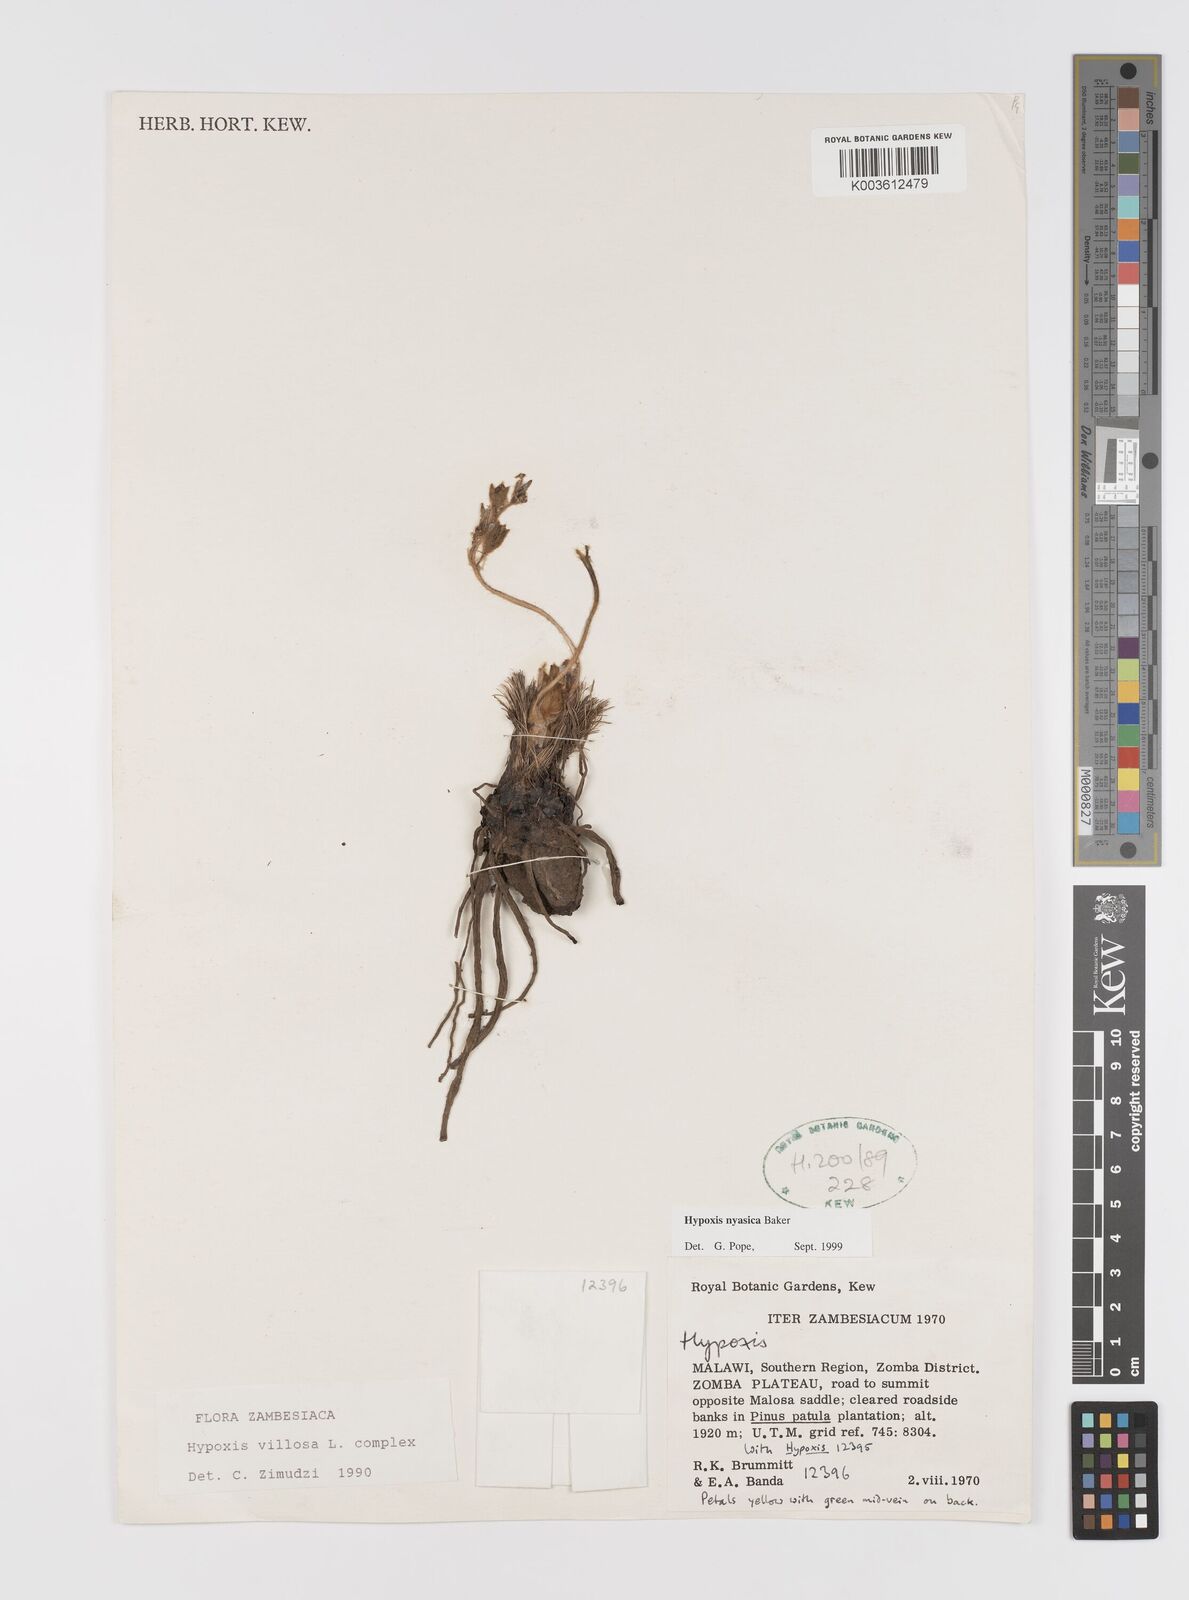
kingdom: Plantae
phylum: Tracheophyta
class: Liliopsida
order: Asparagales
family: Hypoxidaceae
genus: Hypoxis
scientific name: Hypoxis nyasica
